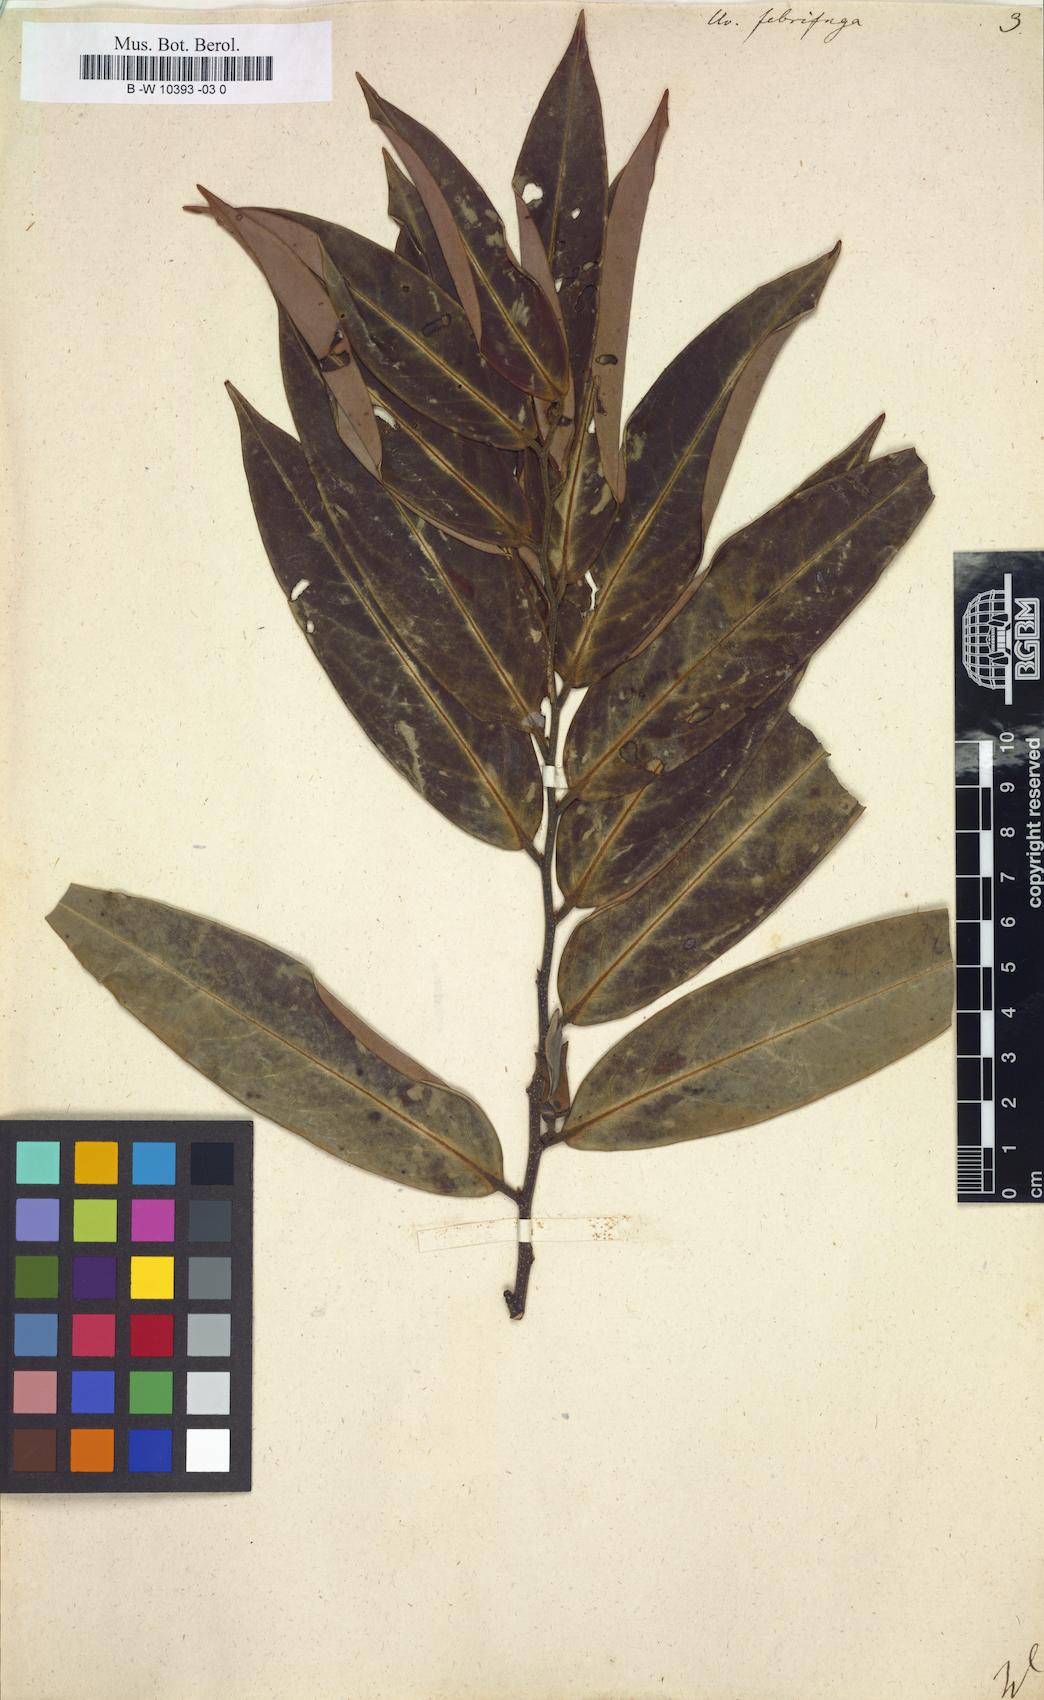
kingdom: Plantae
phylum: Tracheophyta
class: Magnoliopsida
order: Magnoliales
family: Annonaceae
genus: Xylopia
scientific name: Xylopia
